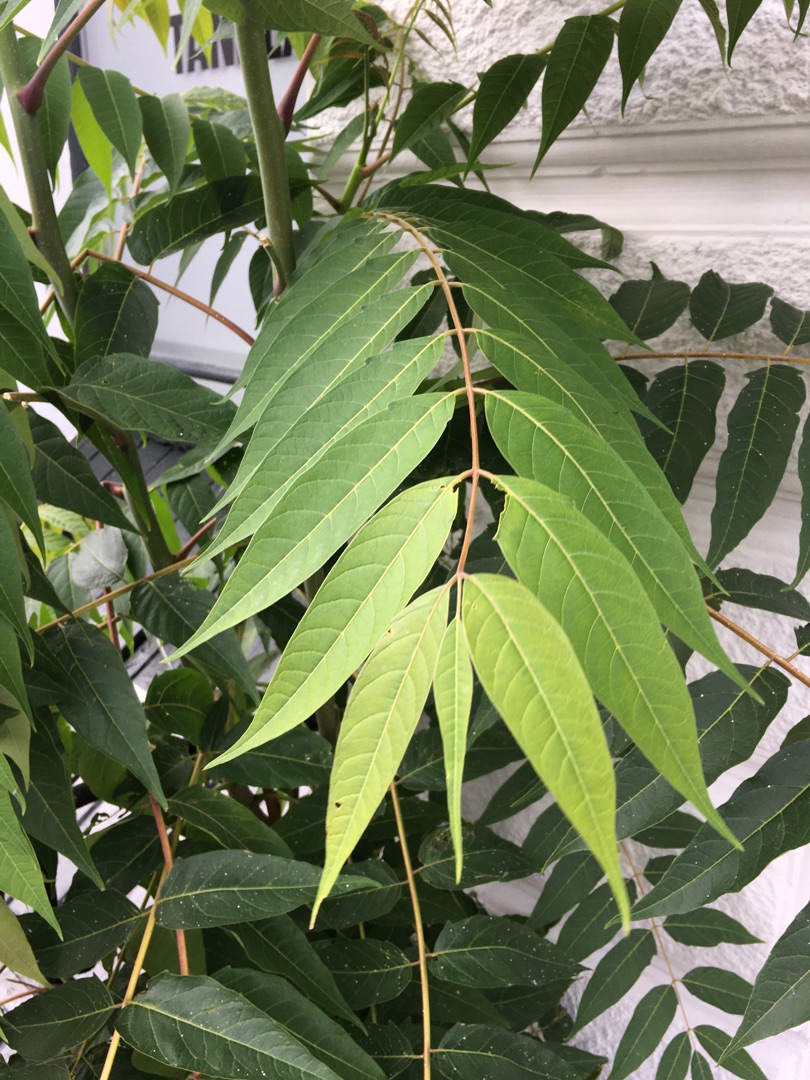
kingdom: Plantae
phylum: Tracheophyta
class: Magnoliopsida
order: Sapindales
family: Simaroubaceae
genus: Ailanthus
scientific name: Ailanthus altissima
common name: Skyrækker
